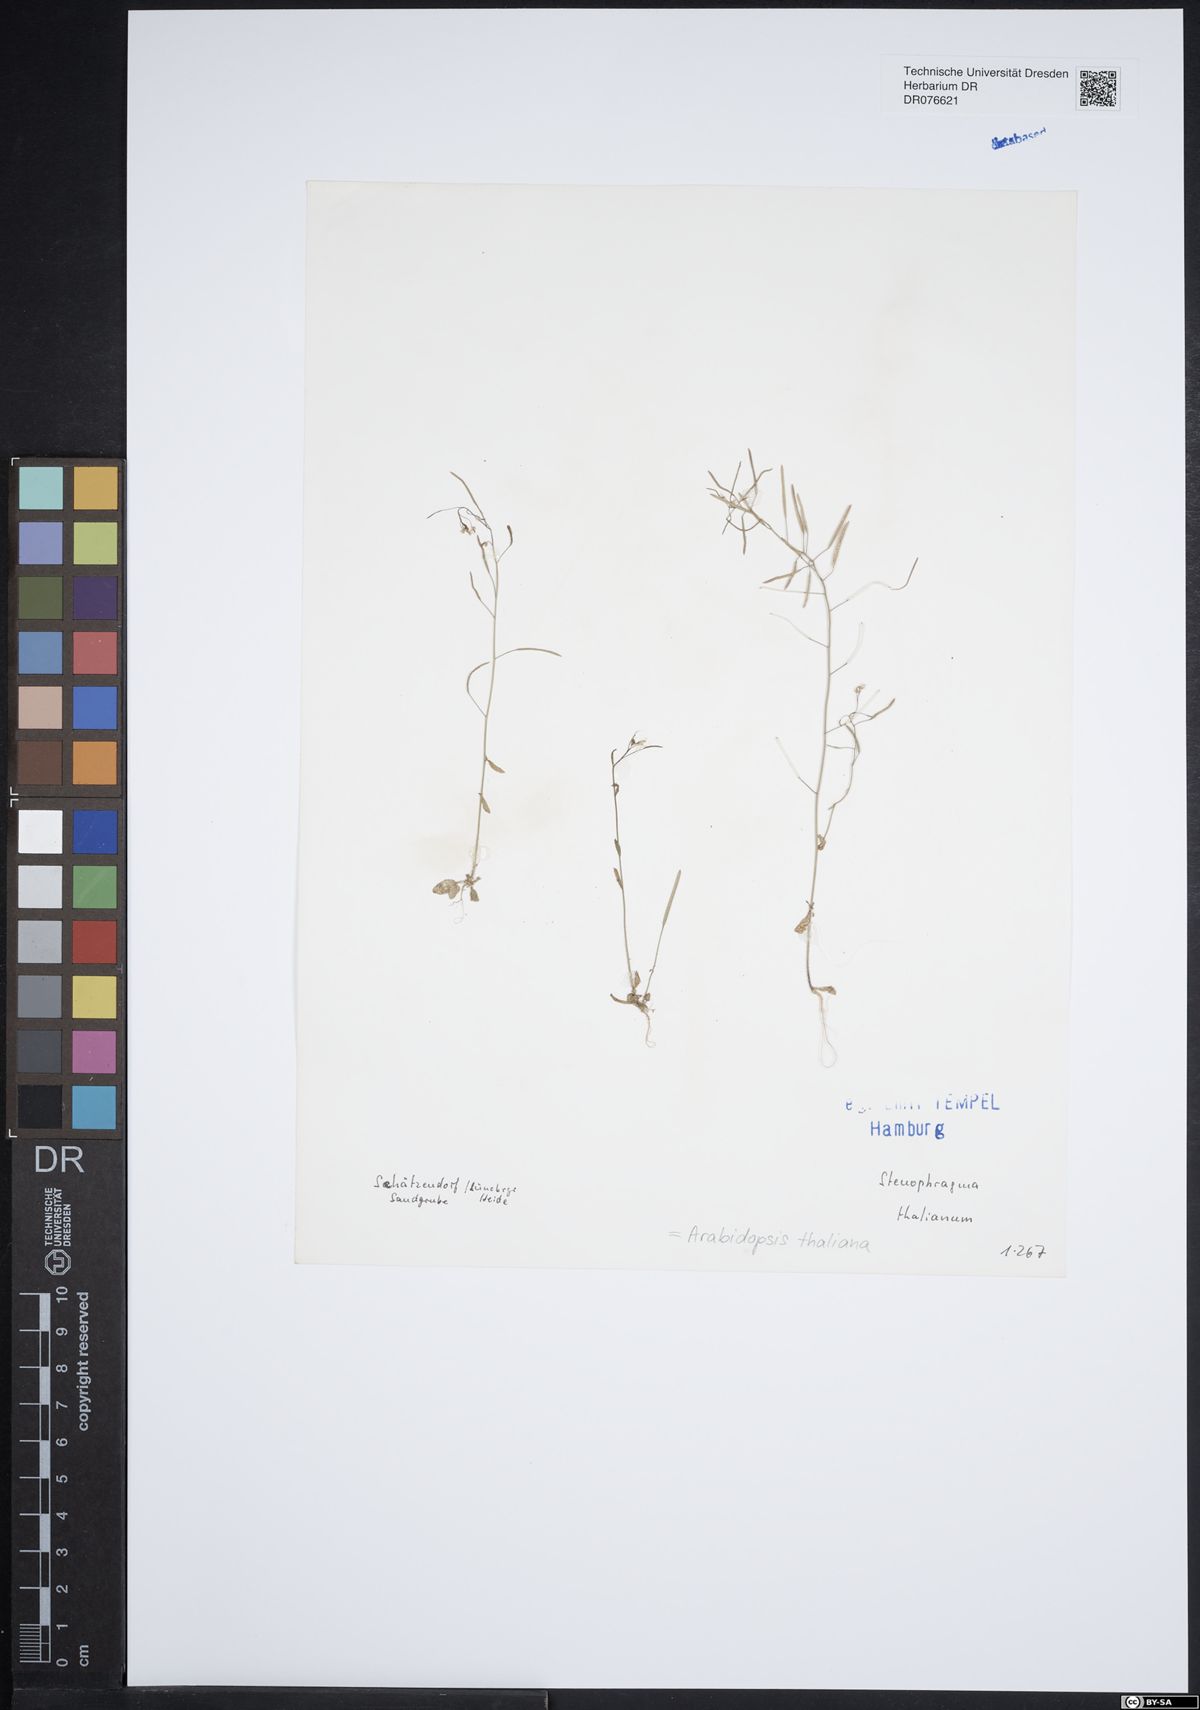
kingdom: Plantae
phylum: Tracheophyta
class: Magnoliopsida
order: Brassicales
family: Brassicaceae
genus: Arabidopsis
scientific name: Arabidopsis thaliana
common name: Thale cress
